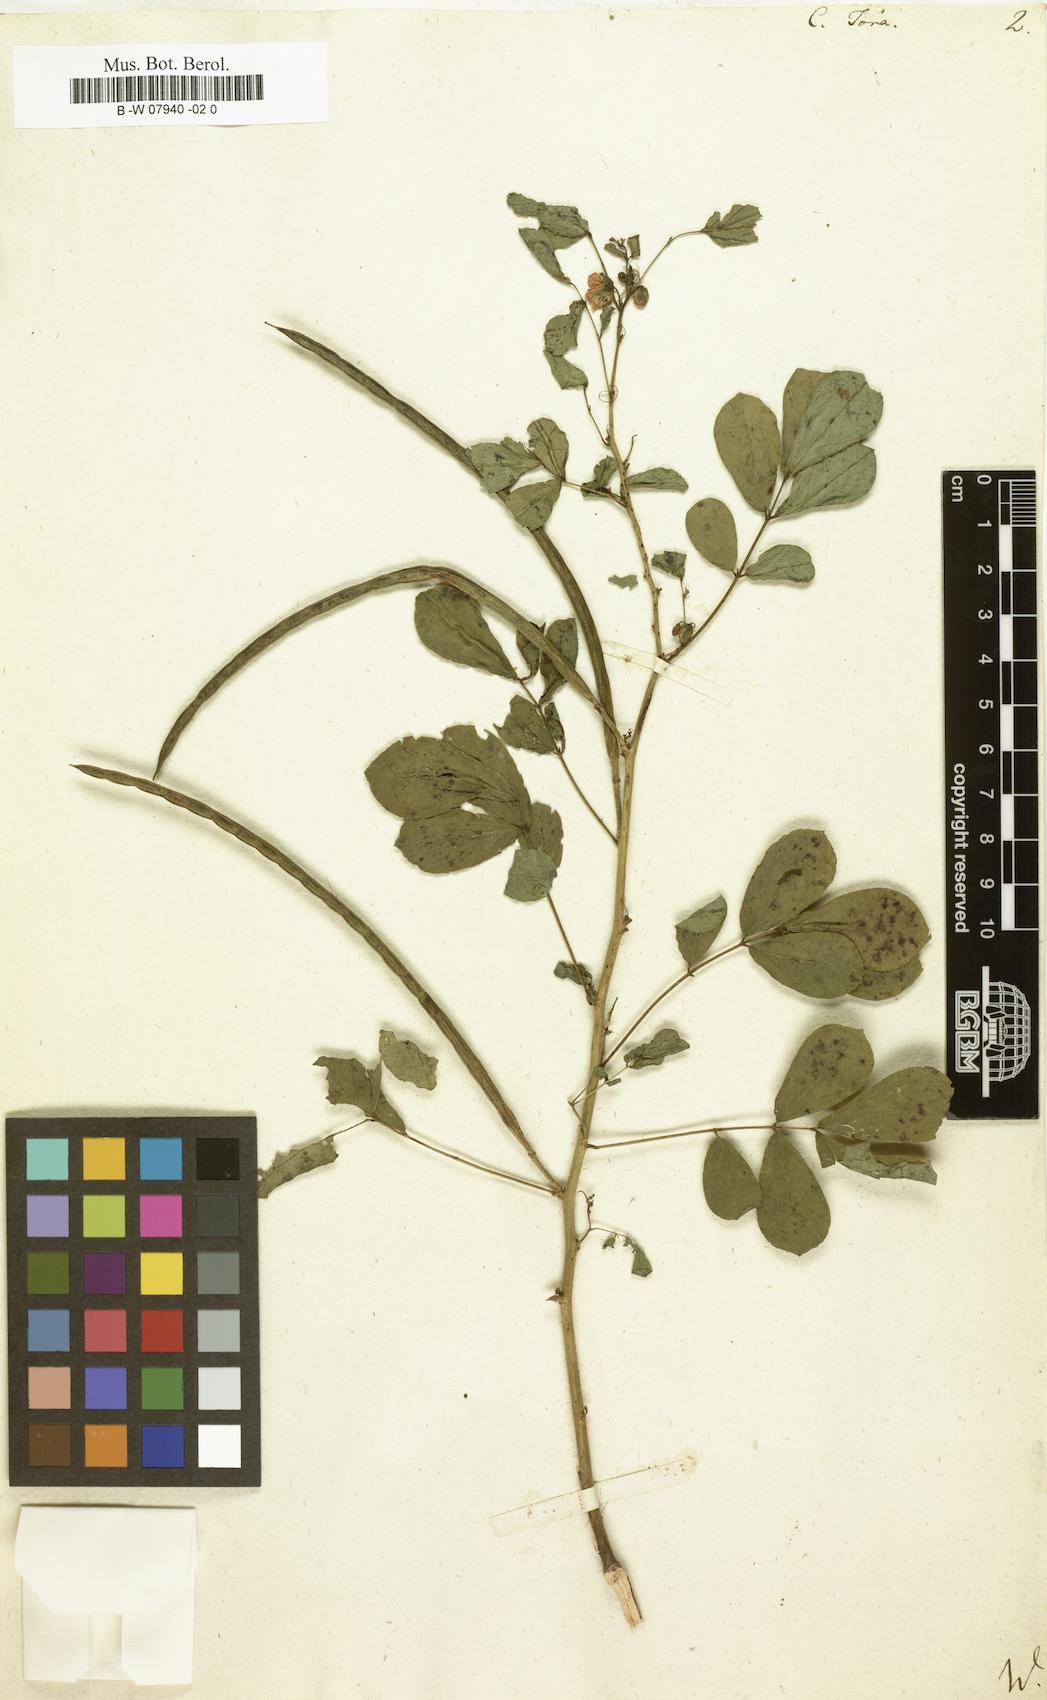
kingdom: Plantae
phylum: Tracheophyta
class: Magnoliopsida
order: Fabales
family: Fabaceae
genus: Senna
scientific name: Senna tora
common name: Sickle senna
